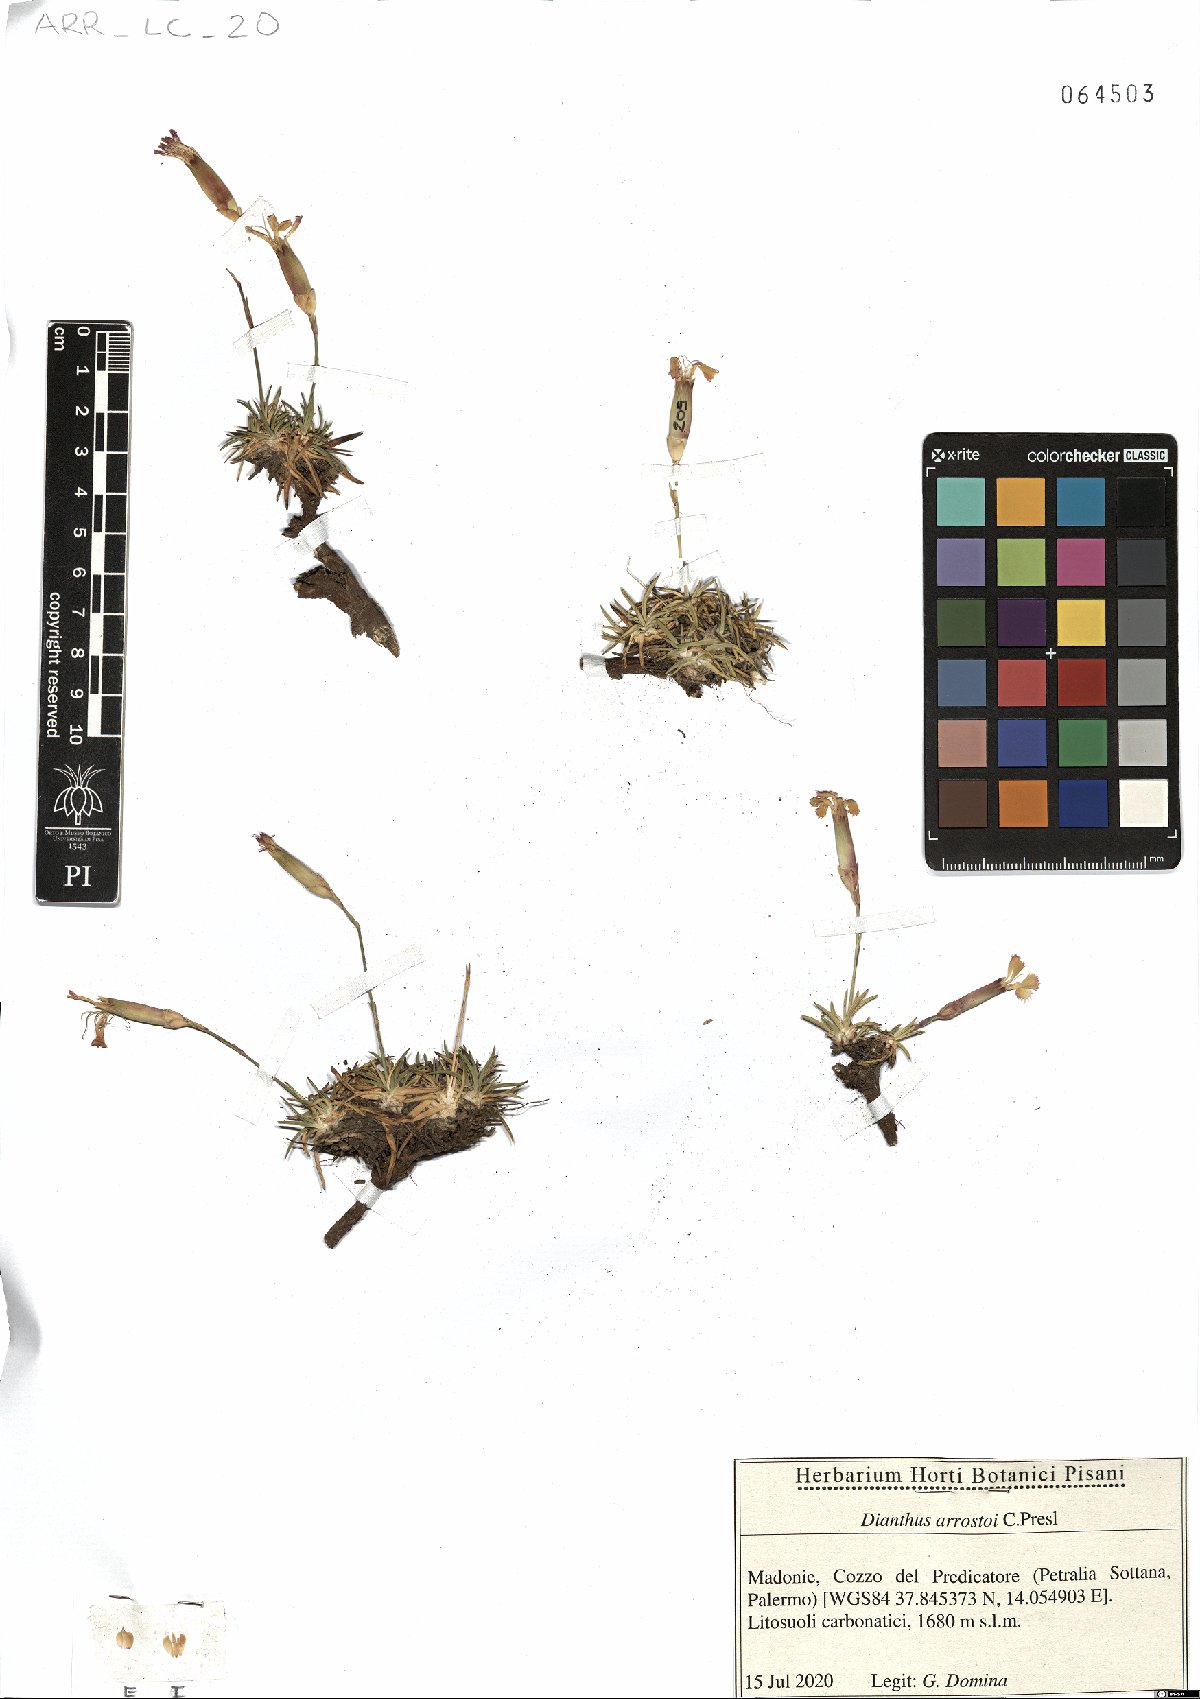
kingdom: Plantae
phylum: Tracheophyta
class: Magnoliopsida
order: Caryophyllales
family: Caryophyllaceae
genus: Dianthus
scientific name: Dianthus arrostoi
